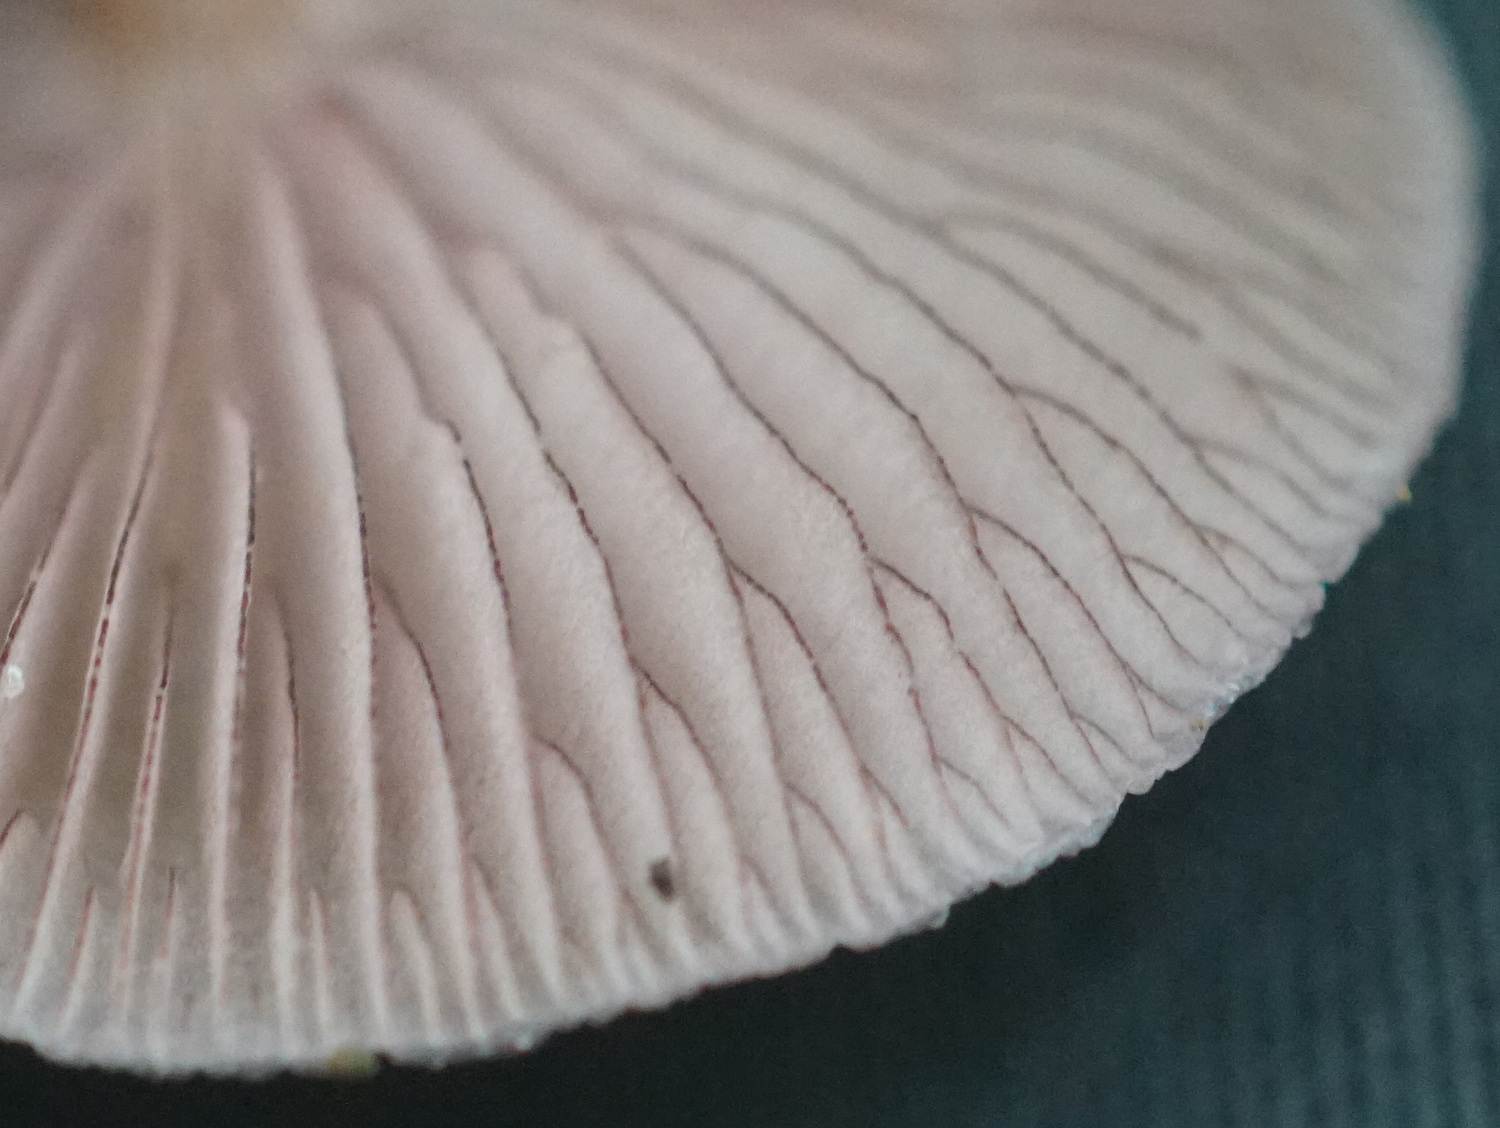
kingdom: Fungi
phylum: Basidiomycota
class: Agaricomycetes
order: Agaricales
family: Mycenaceae
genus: Mycena
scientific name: Mycena pelianthina
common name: mørkbladet huesvamp
